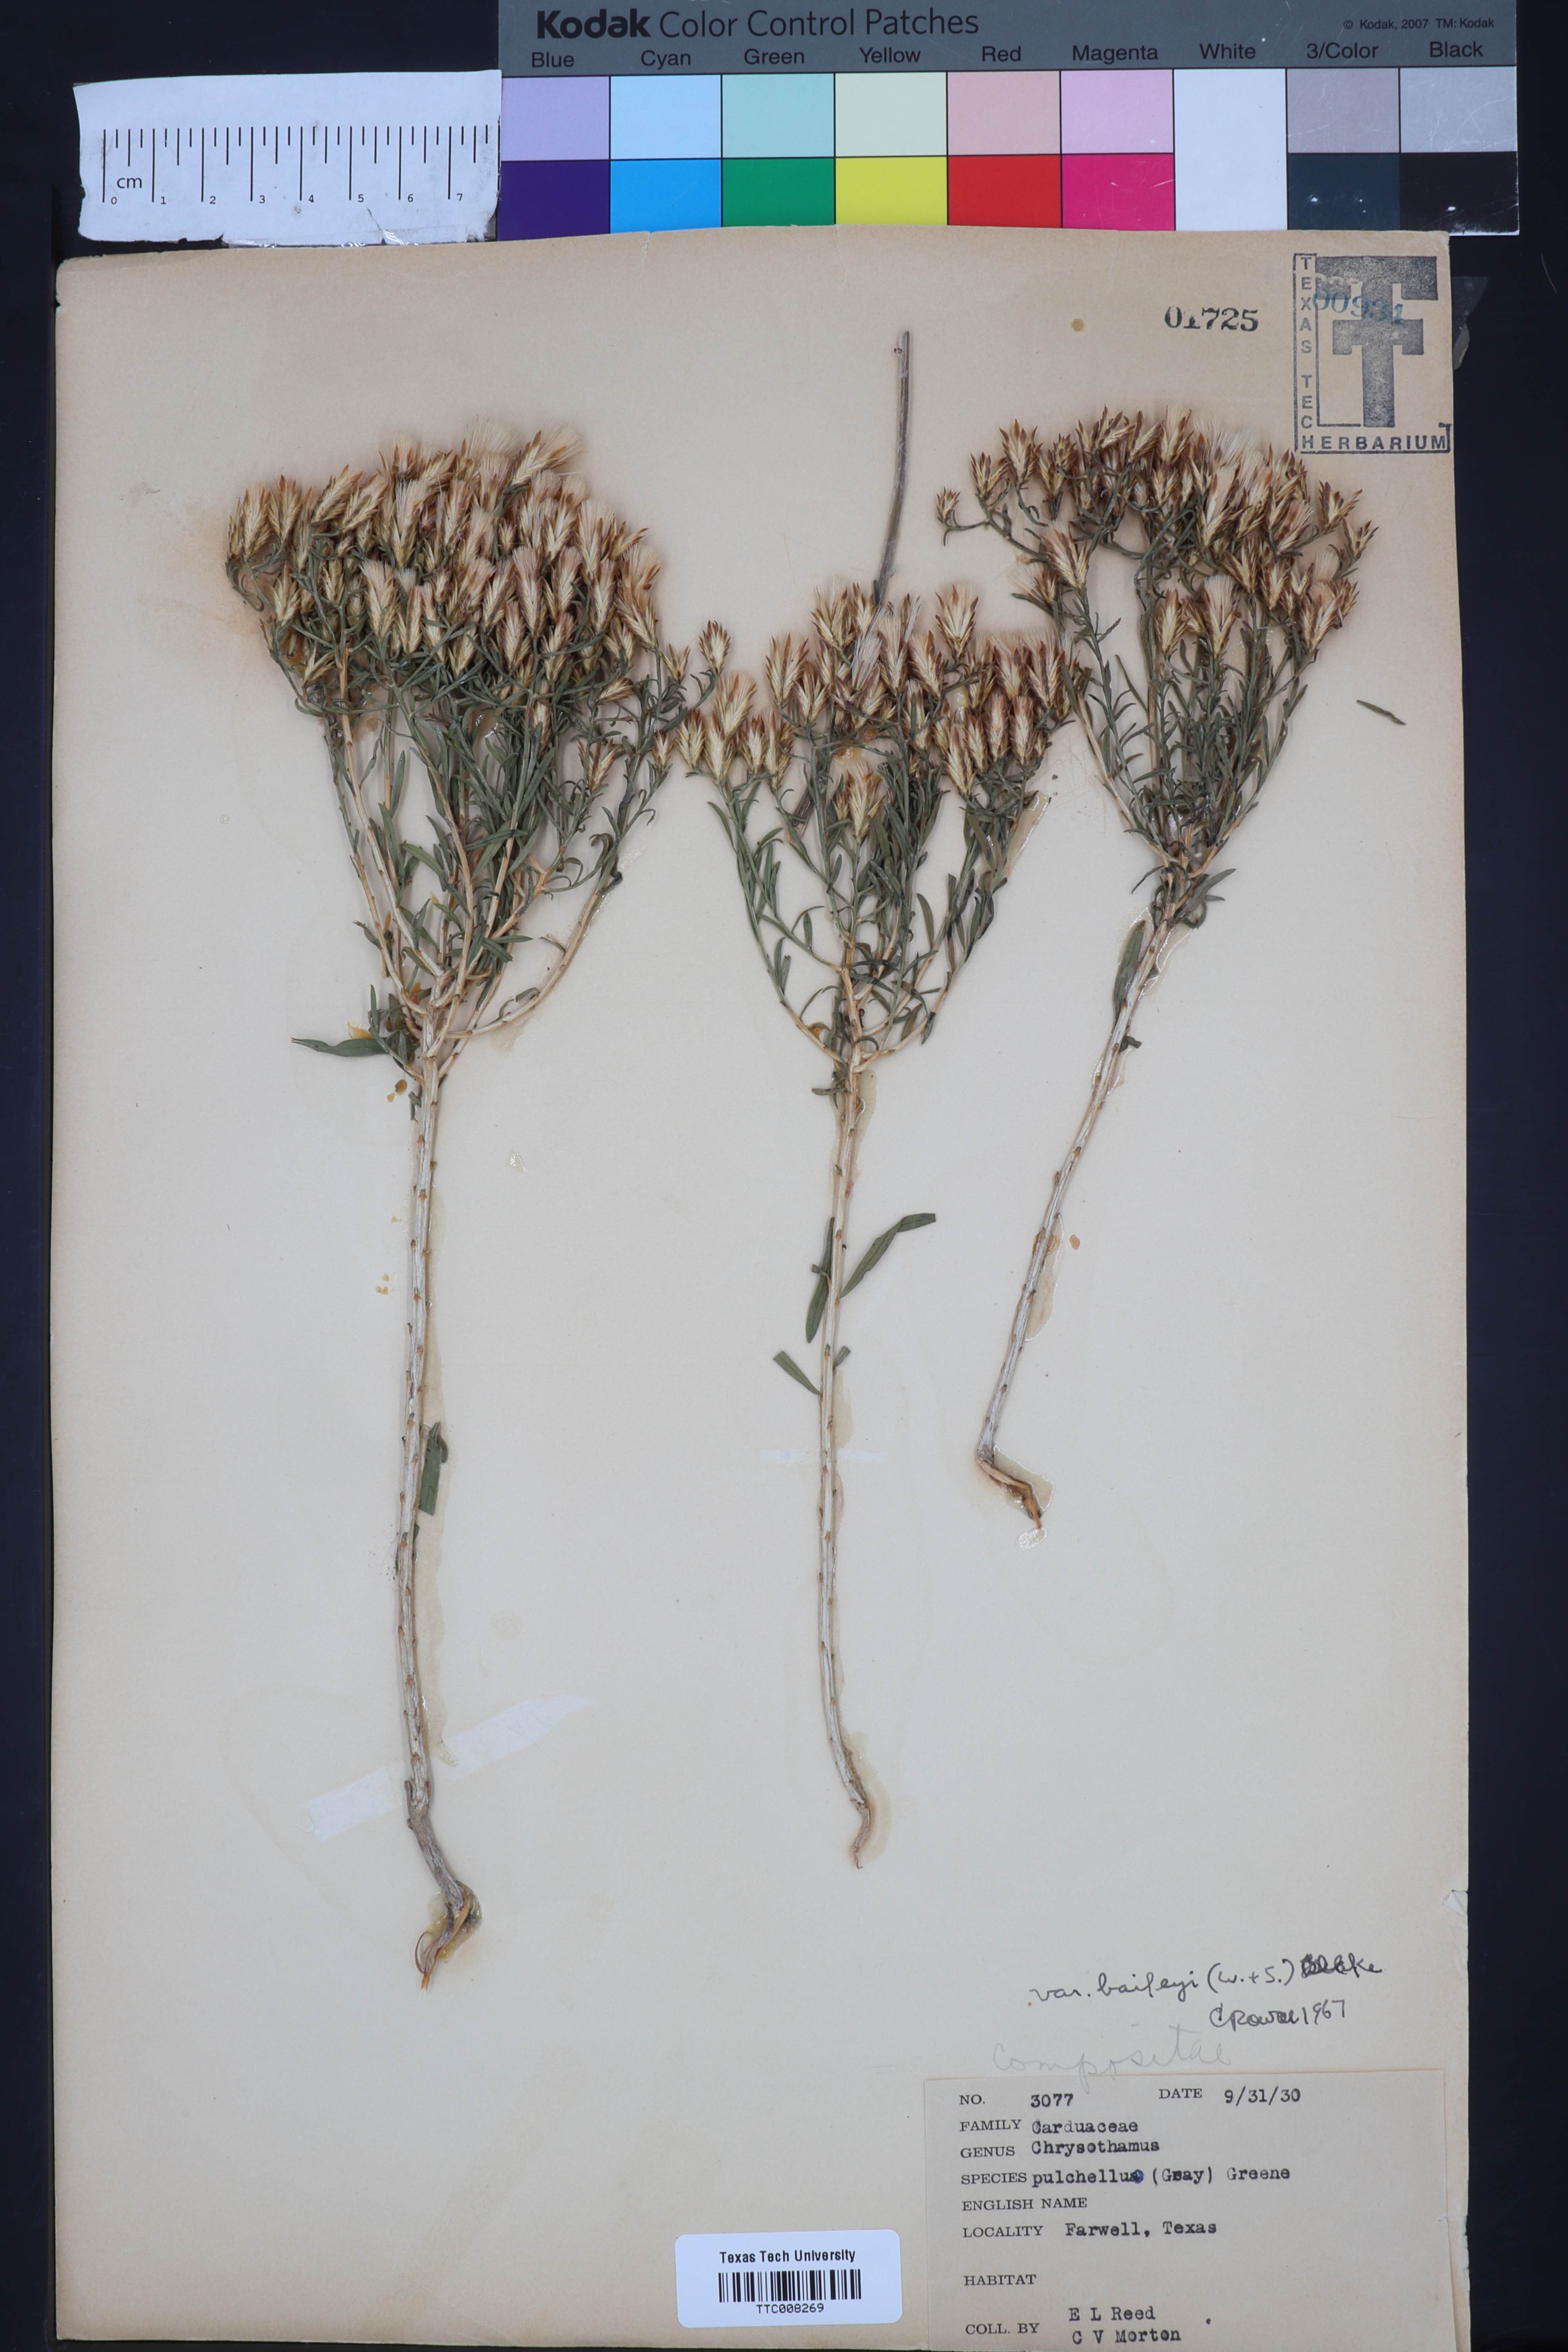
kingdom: Plantae
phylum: Tracheophyta
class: Magnoliopsida
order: Asterales
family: Asteraceae
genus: Lorandersonia
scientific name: Lorandersonia baileyi
